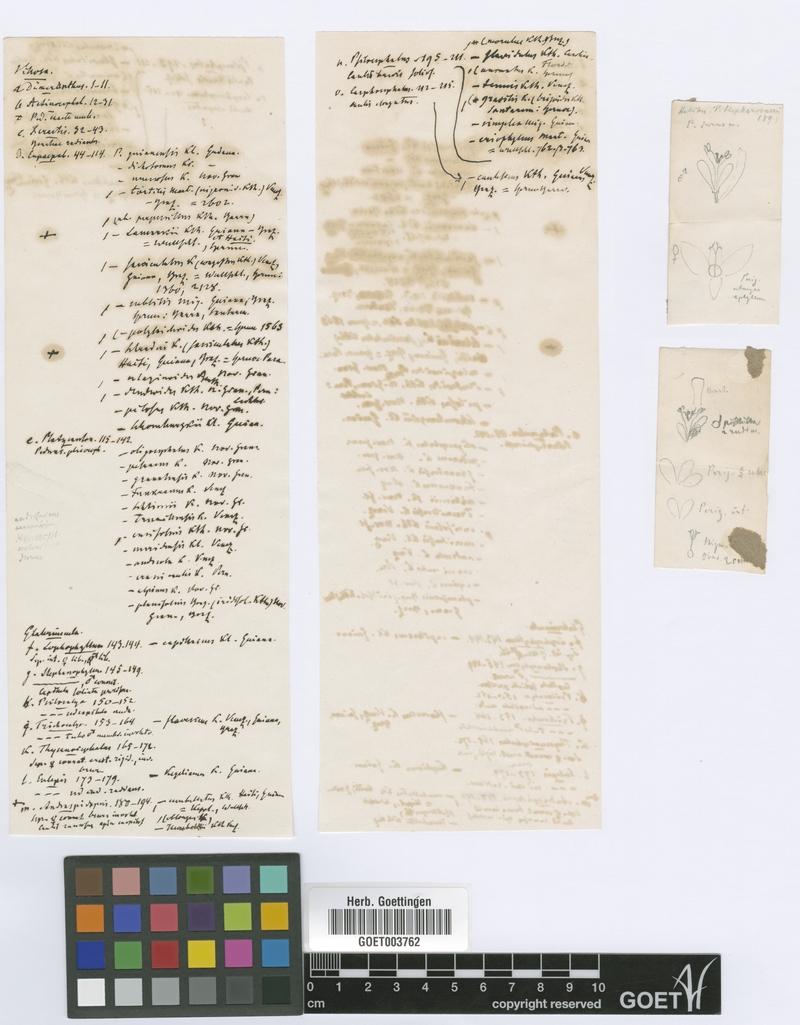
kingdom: Plantae
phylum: Tracheophyta
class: Liliopsida
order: Poales
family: Eriocaulaceae
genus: Paepalanthus
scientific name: Paepalanthus pungens
